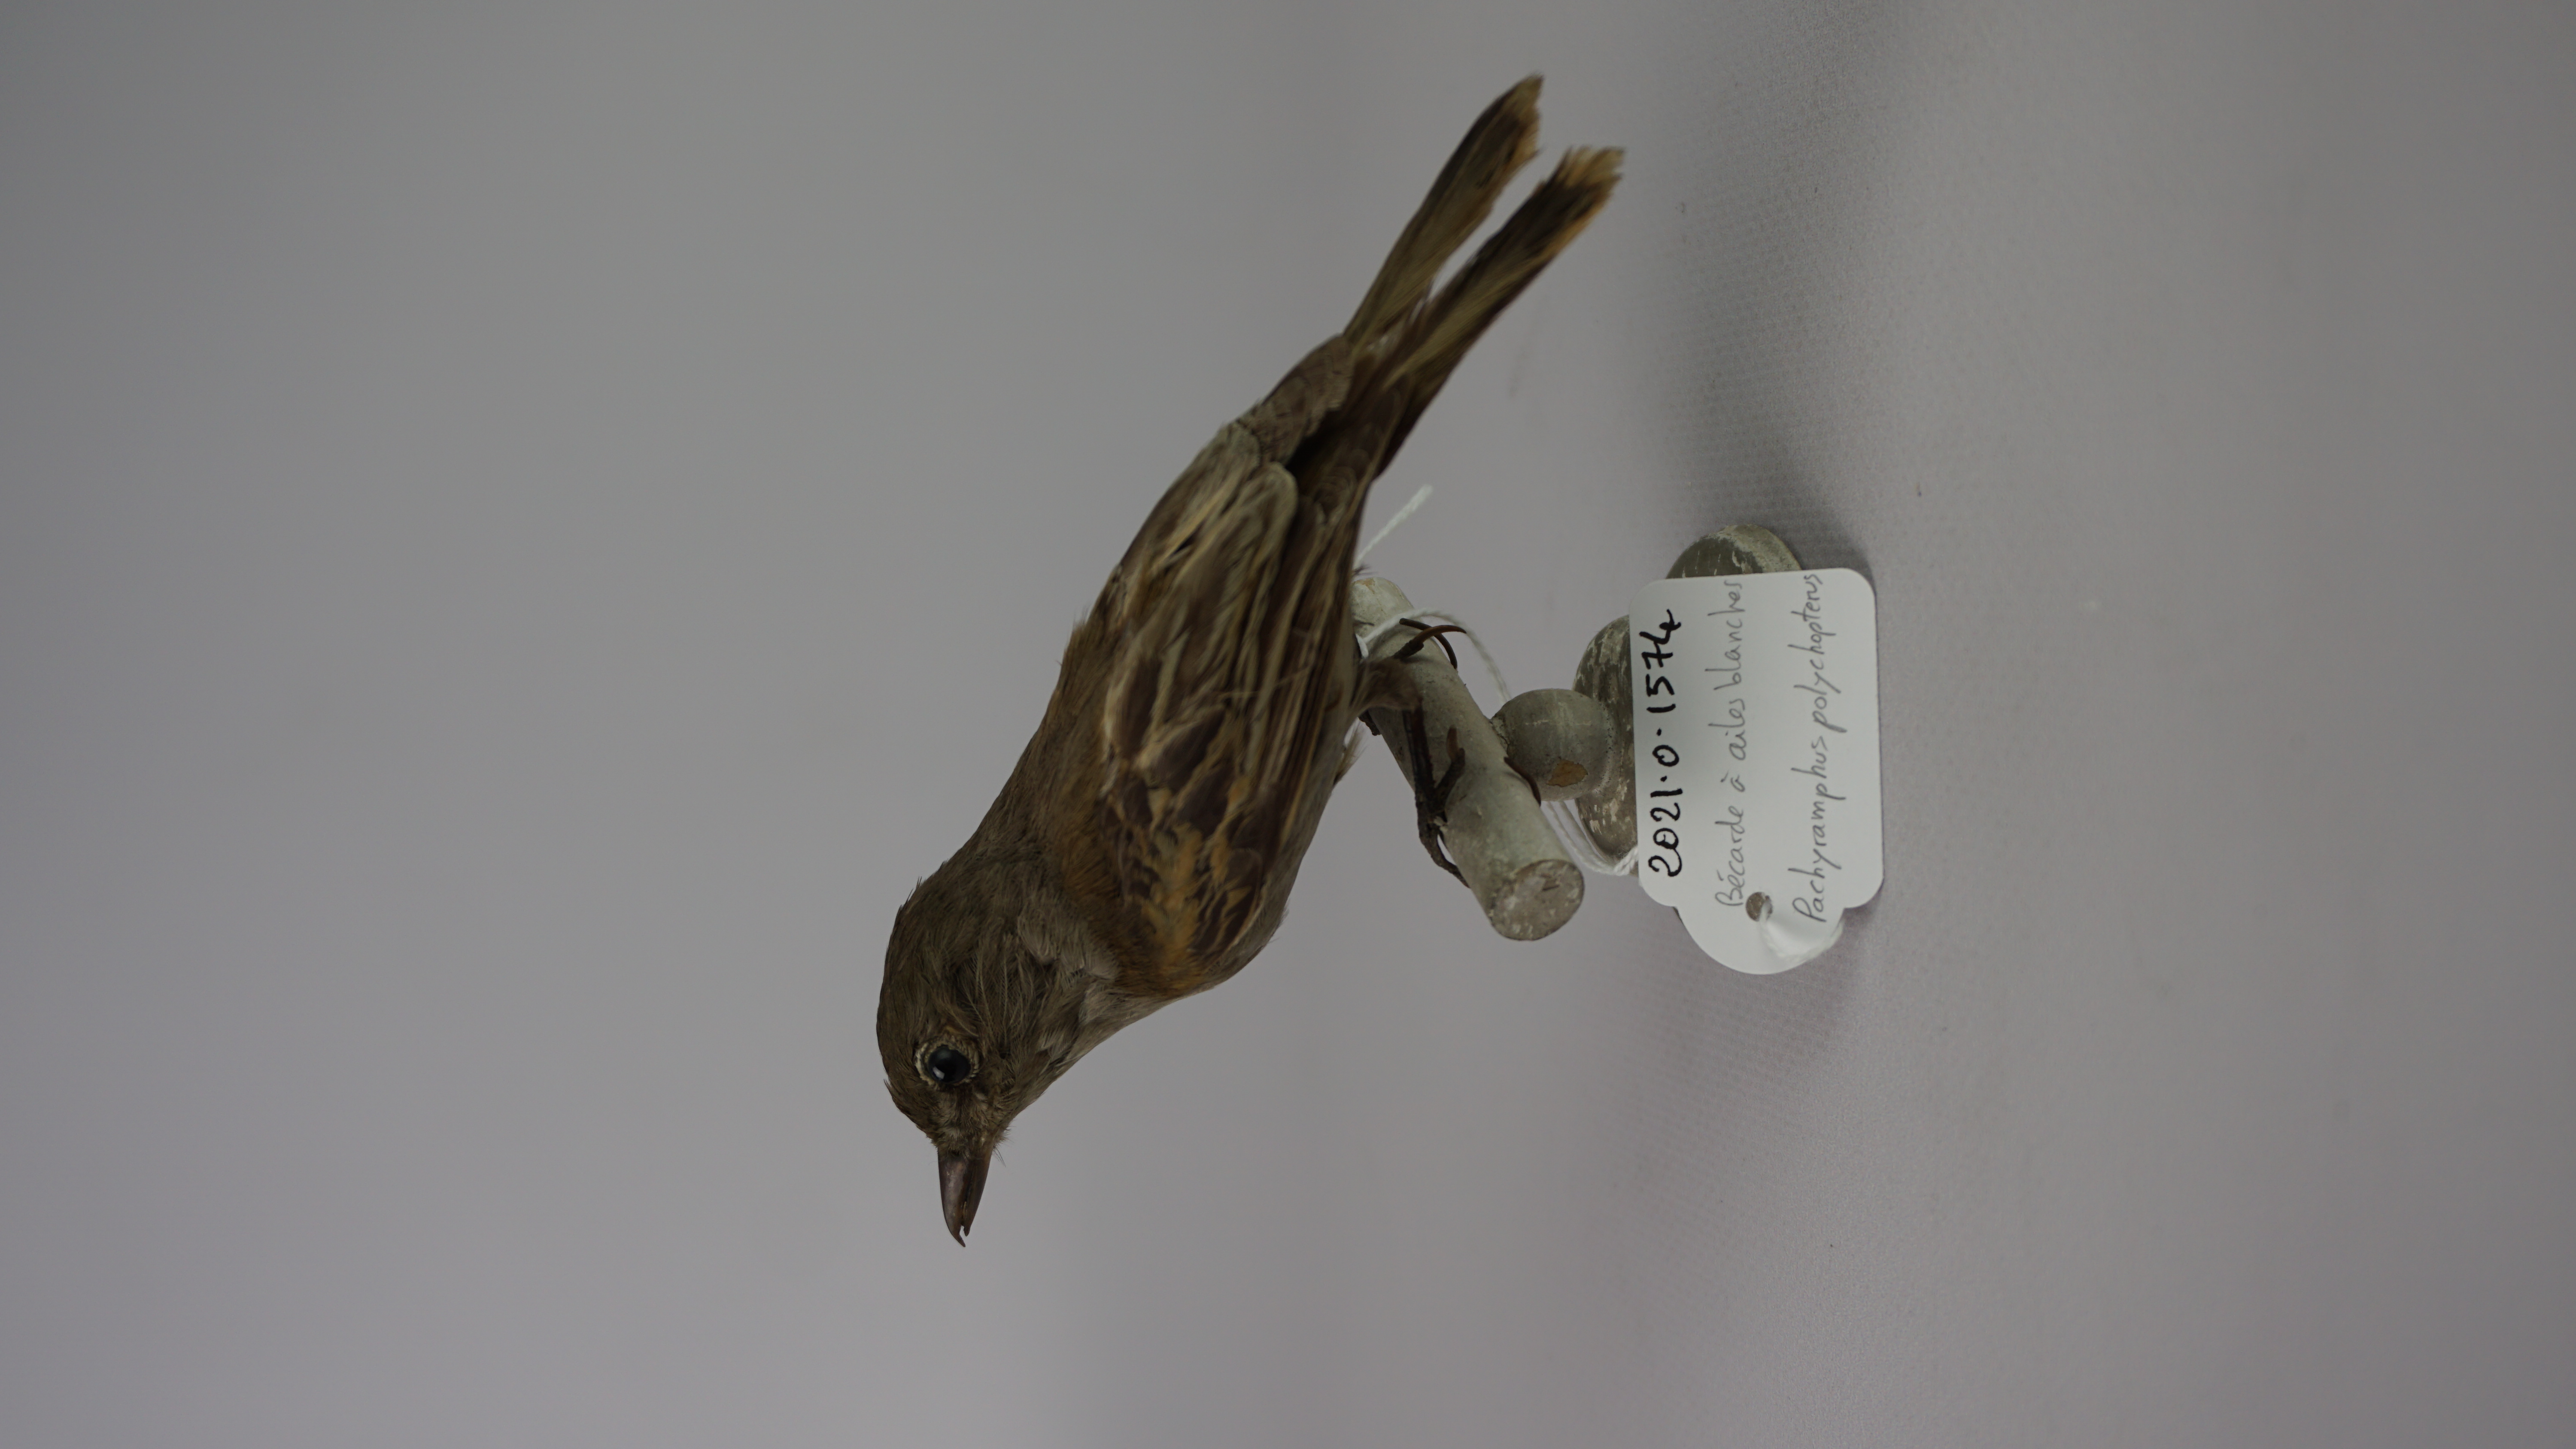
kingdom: Animalia
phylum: Chordata
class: Aves
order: Passeriformes
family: Cotingidae
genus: Pachyramphus
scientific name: Pachyramphus polychopterus
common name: White-winged becard
